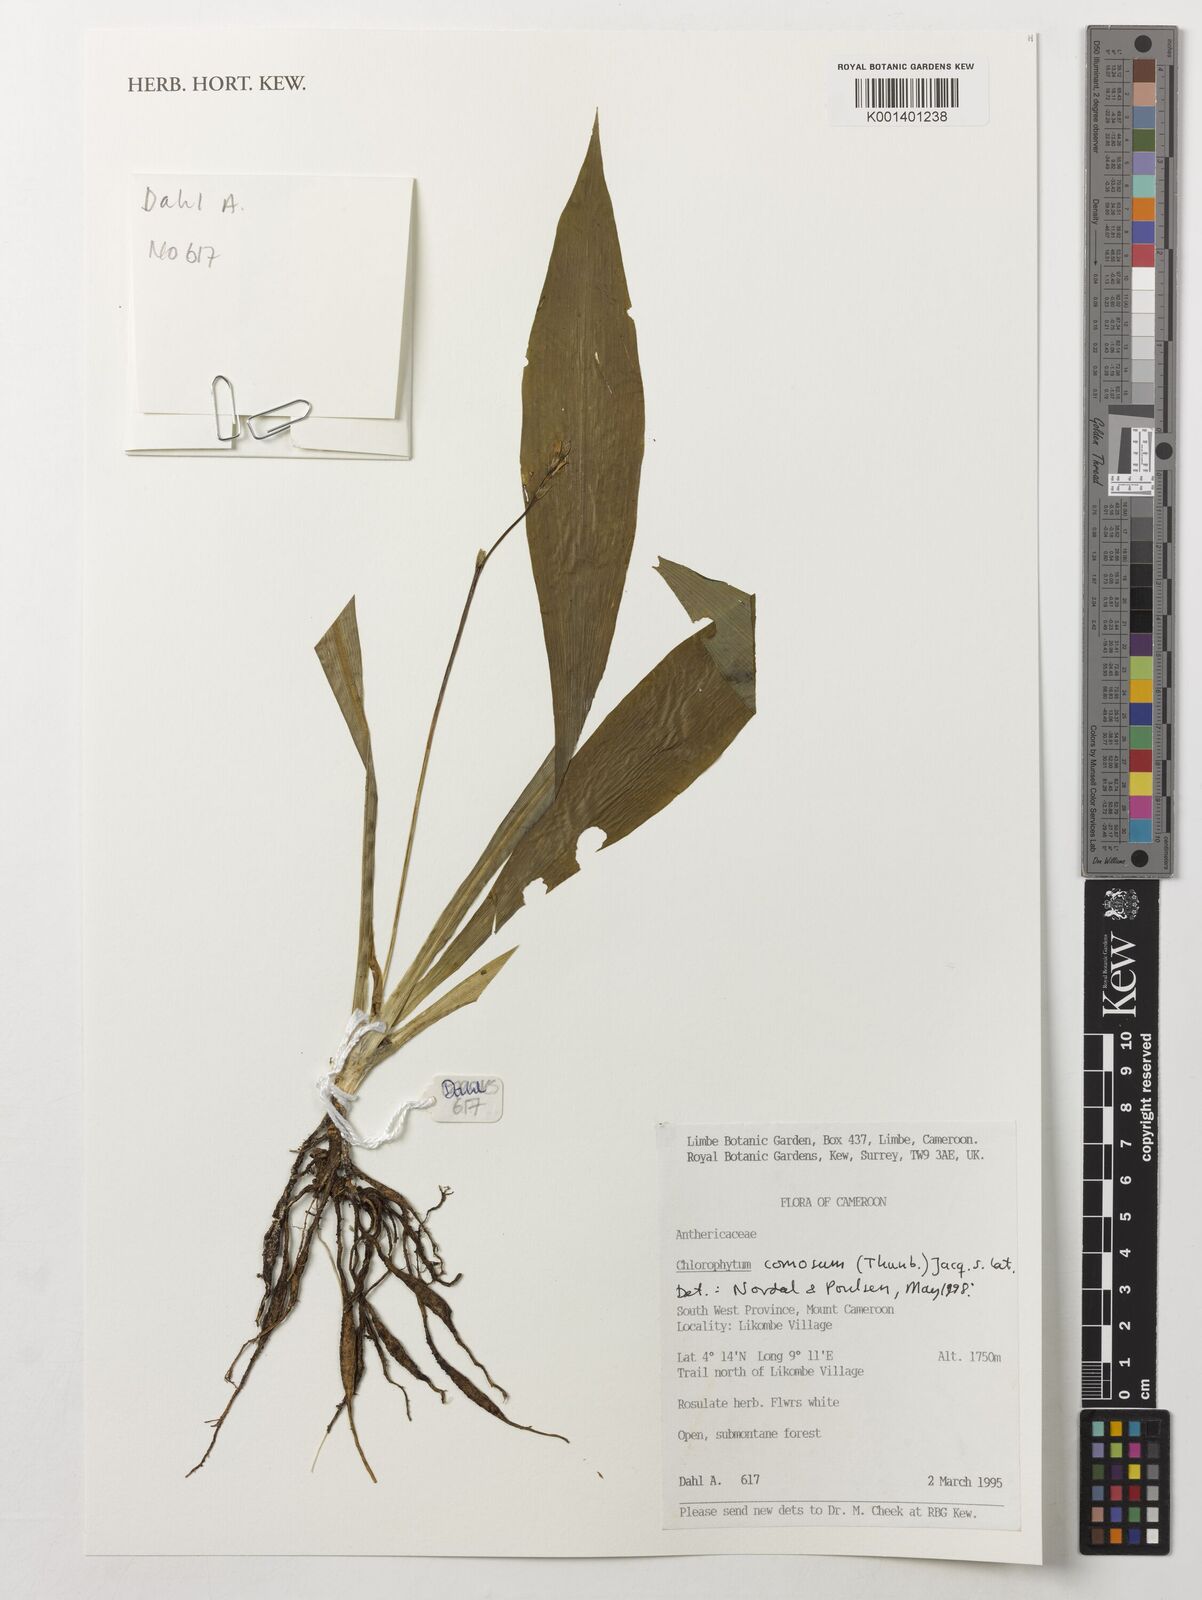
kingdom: Plantae
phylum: Tracheophyta
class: Liliopsida
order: Asparagales
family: Asparagaceae
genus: Chlorophytum
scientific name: Chlorophytum comosum
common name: Spider plant
